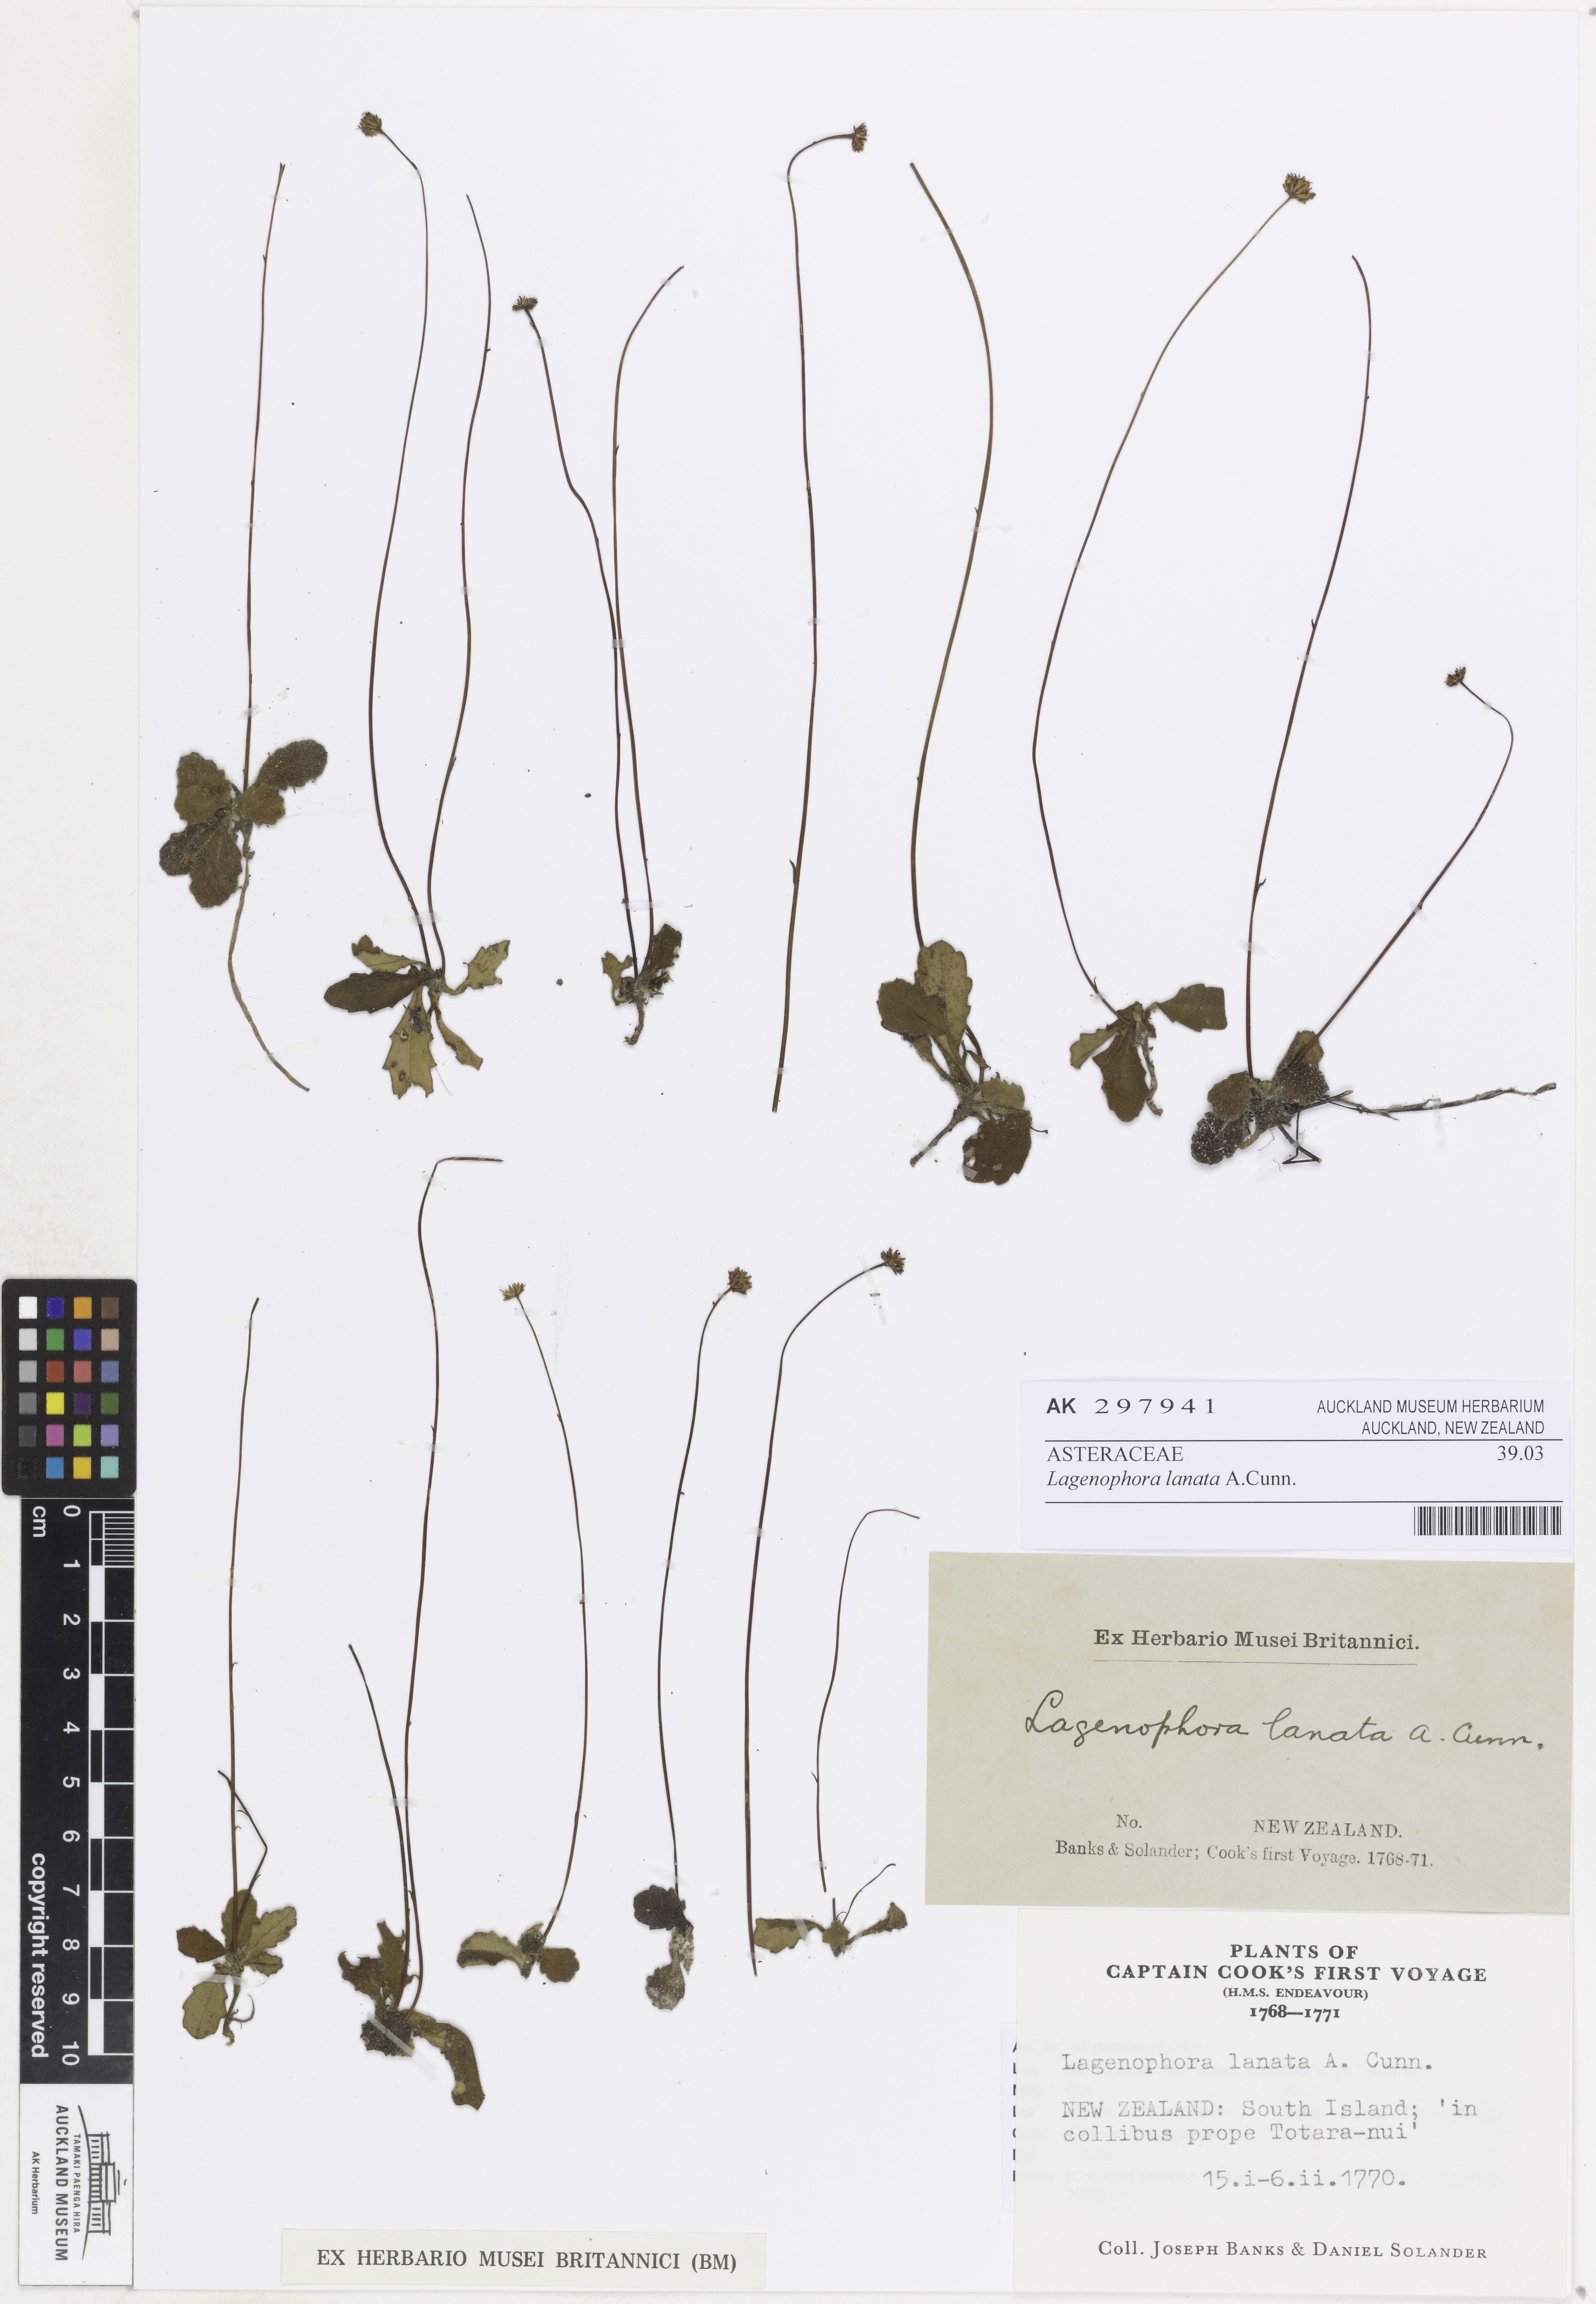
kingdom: Plantae
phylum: Tracheophyta
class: Magnoliopsida
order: Asterales
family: Asteraceae
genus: Lagenophora
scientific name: Lagenophora sublyrata ter
